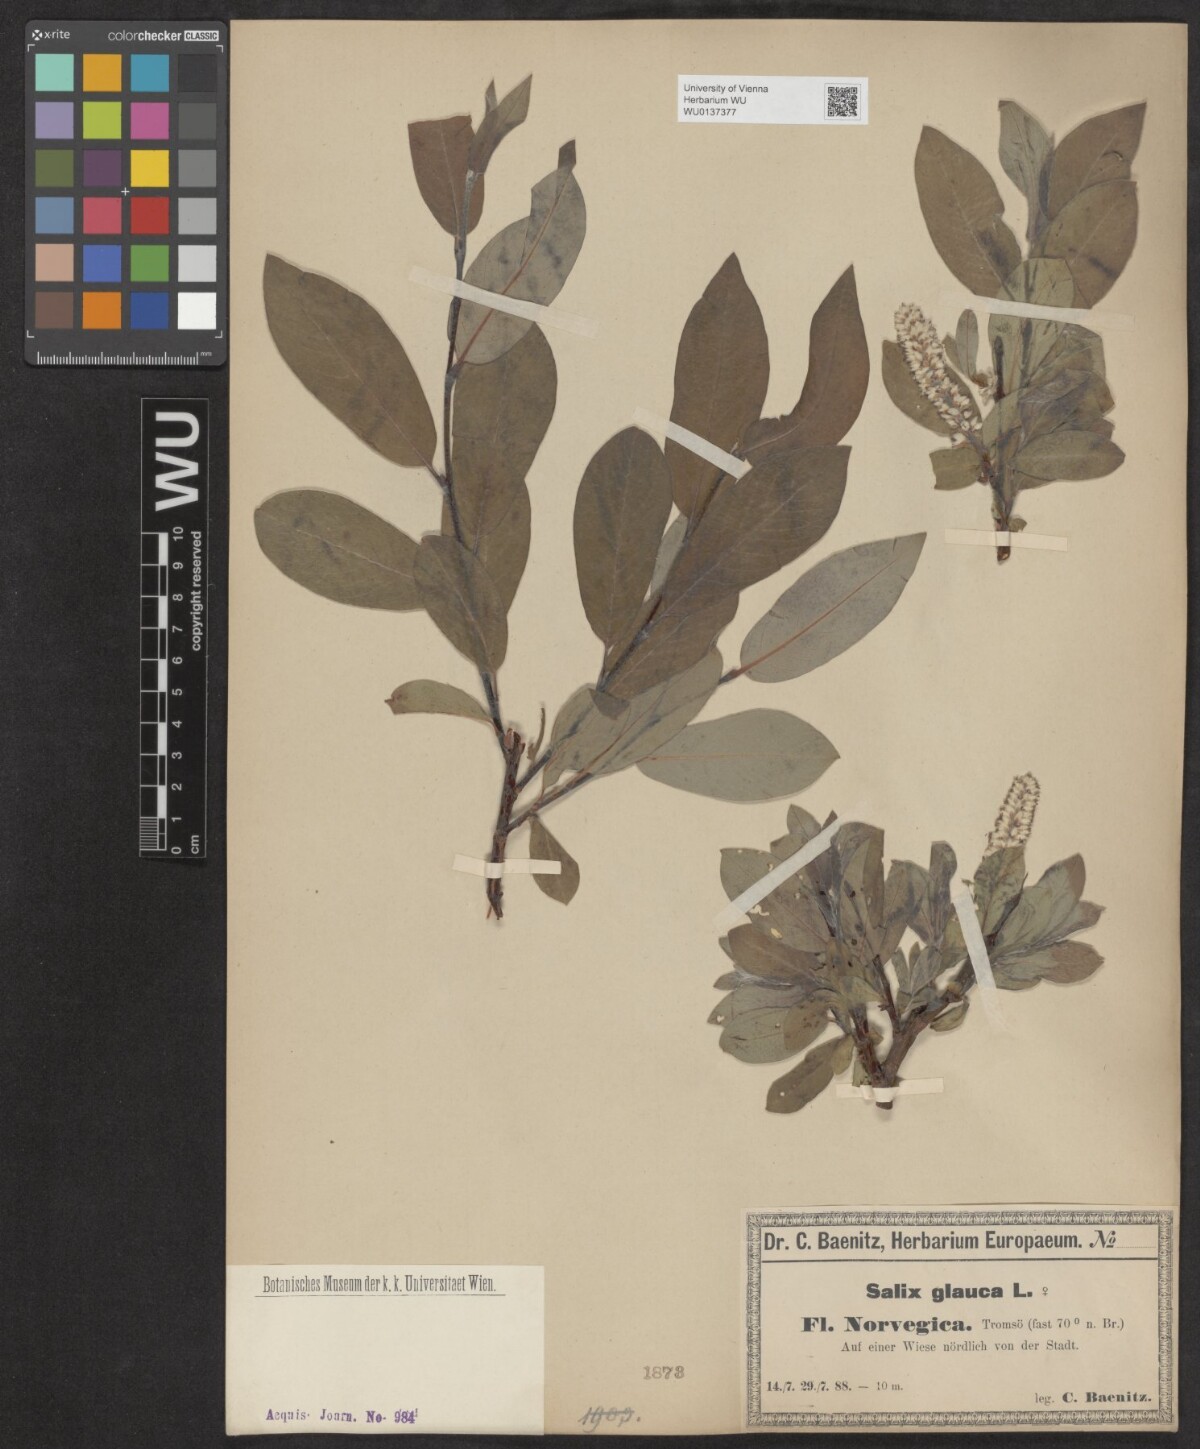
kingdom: Plantae
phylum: Tracheophyta
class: Magnoliopsida
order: Malpighiales
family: Salicaceae
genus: Salix
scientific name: Salix glauca
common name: Glaucous willow
